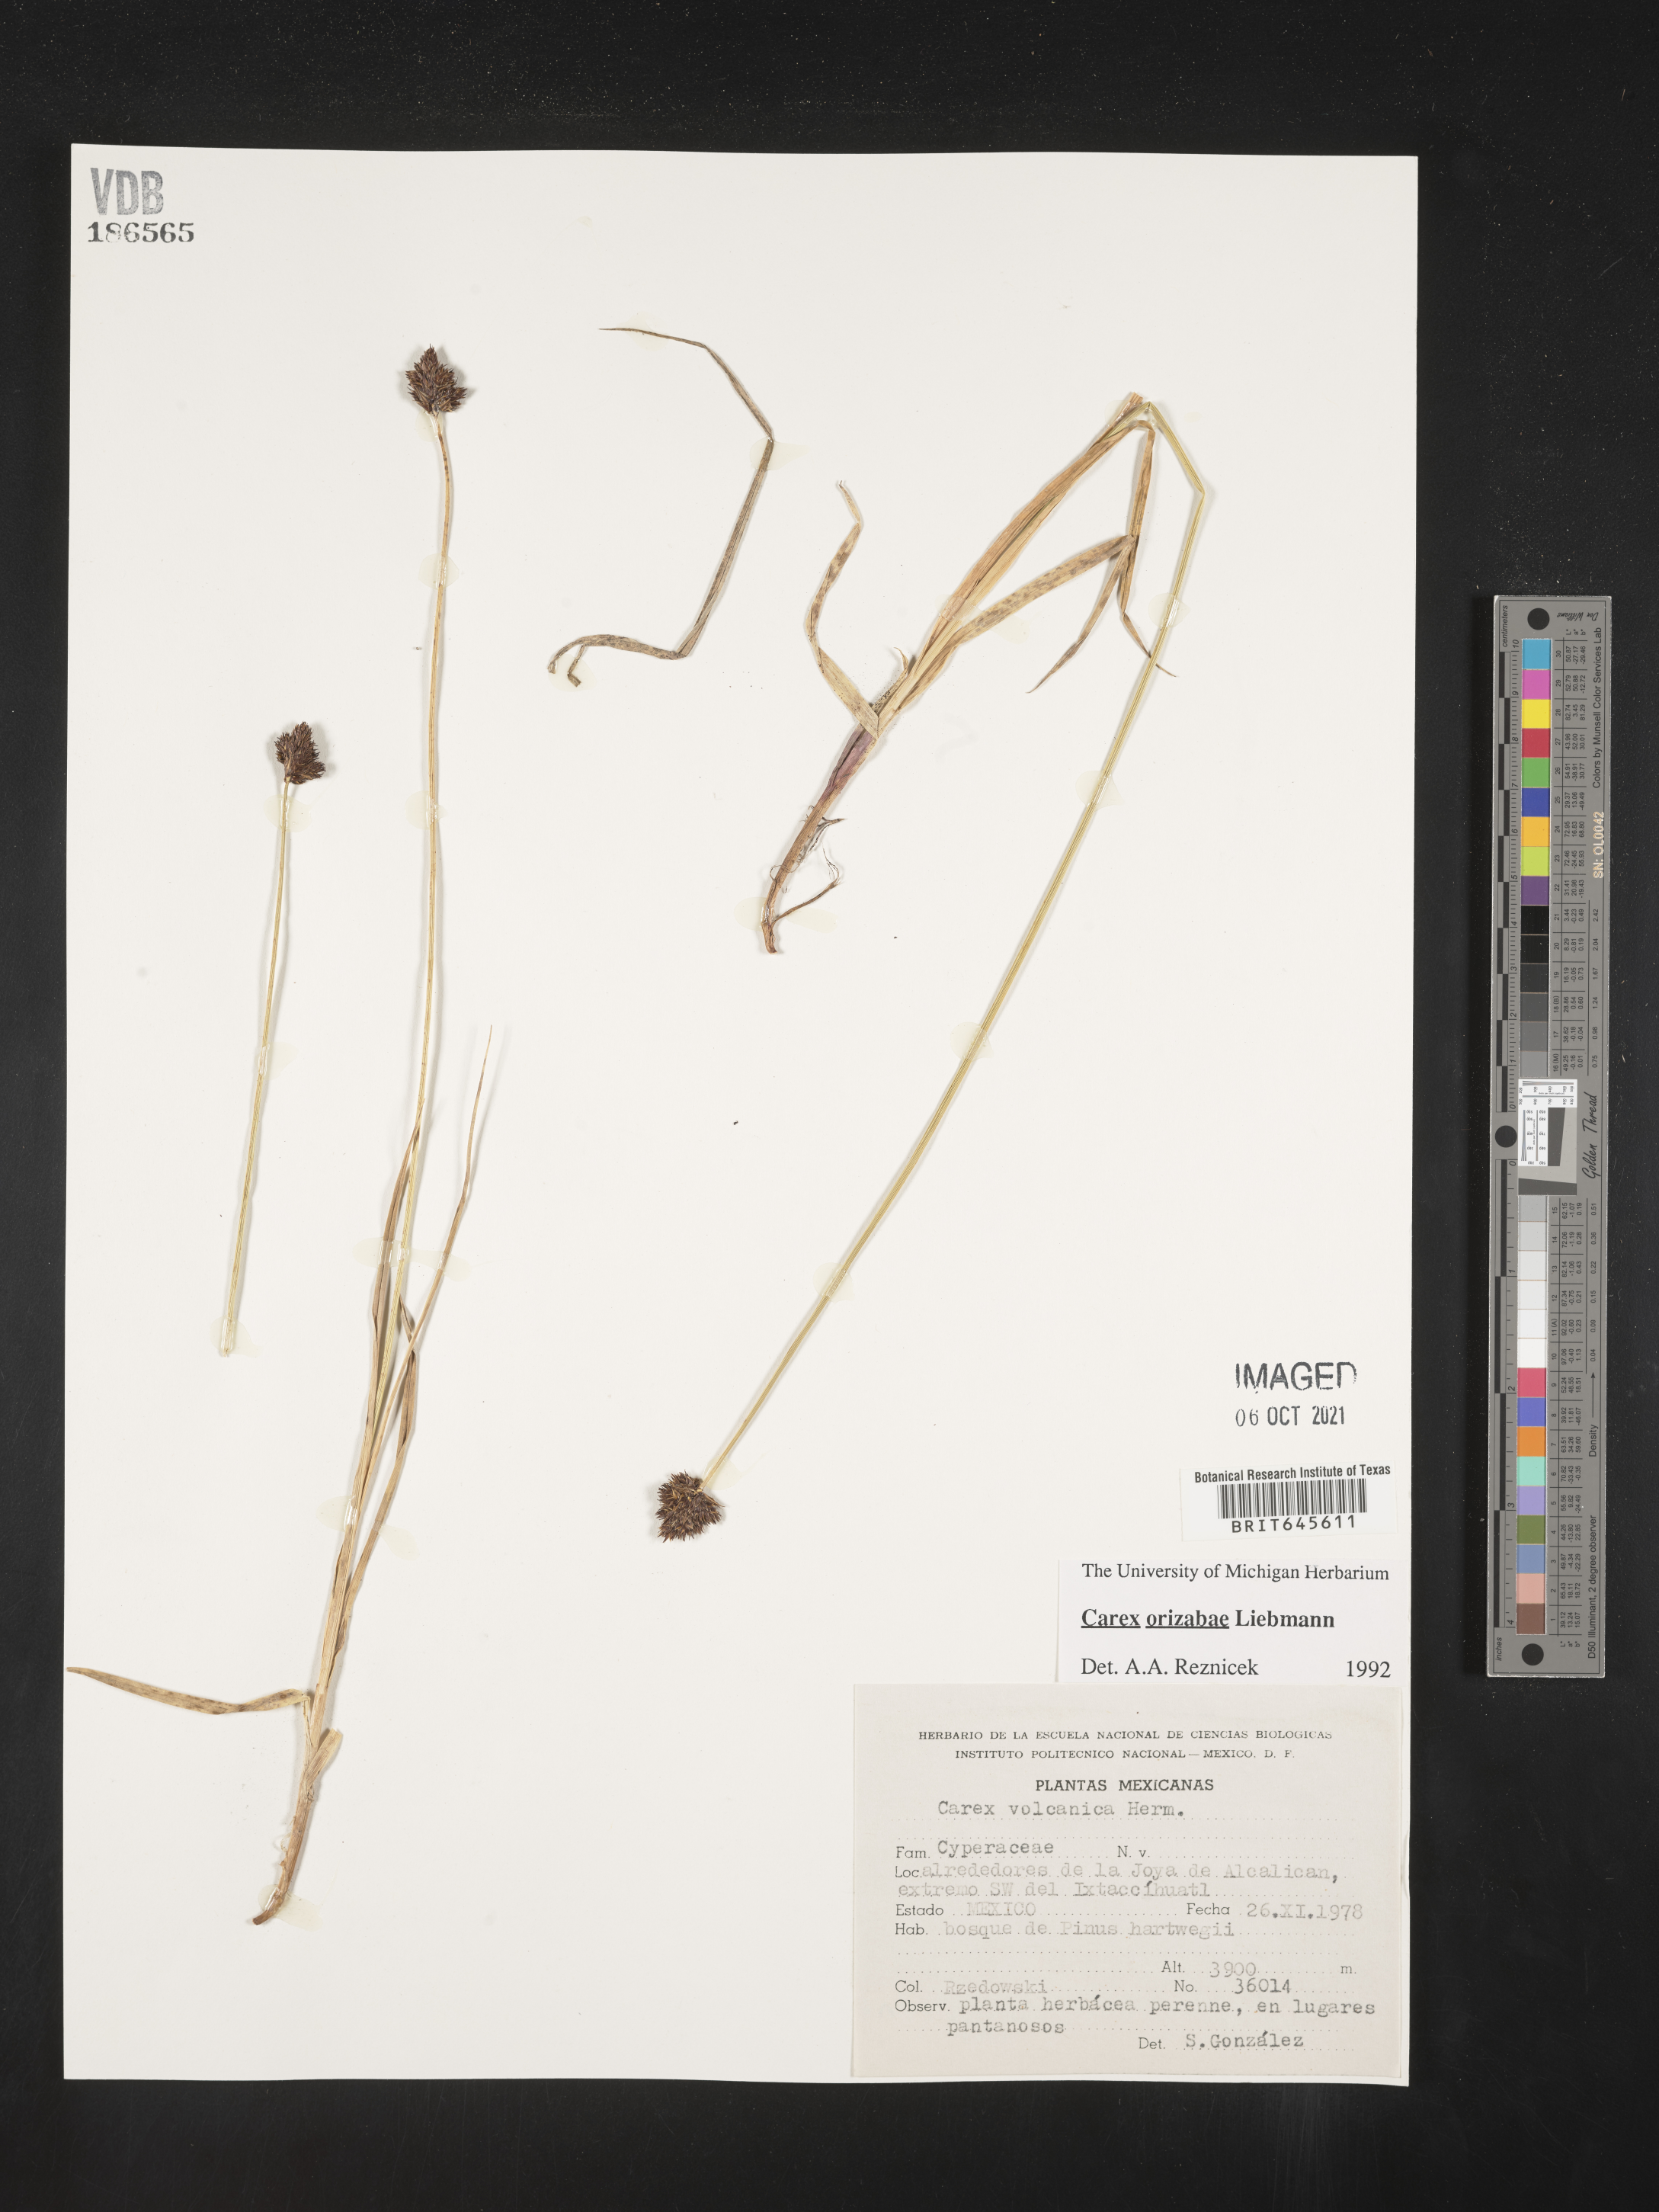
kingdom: Plantae
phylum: Tracheophyta
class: Liliopsida
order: Poales
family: Cyperaceae
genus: Carex
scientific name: Carex
